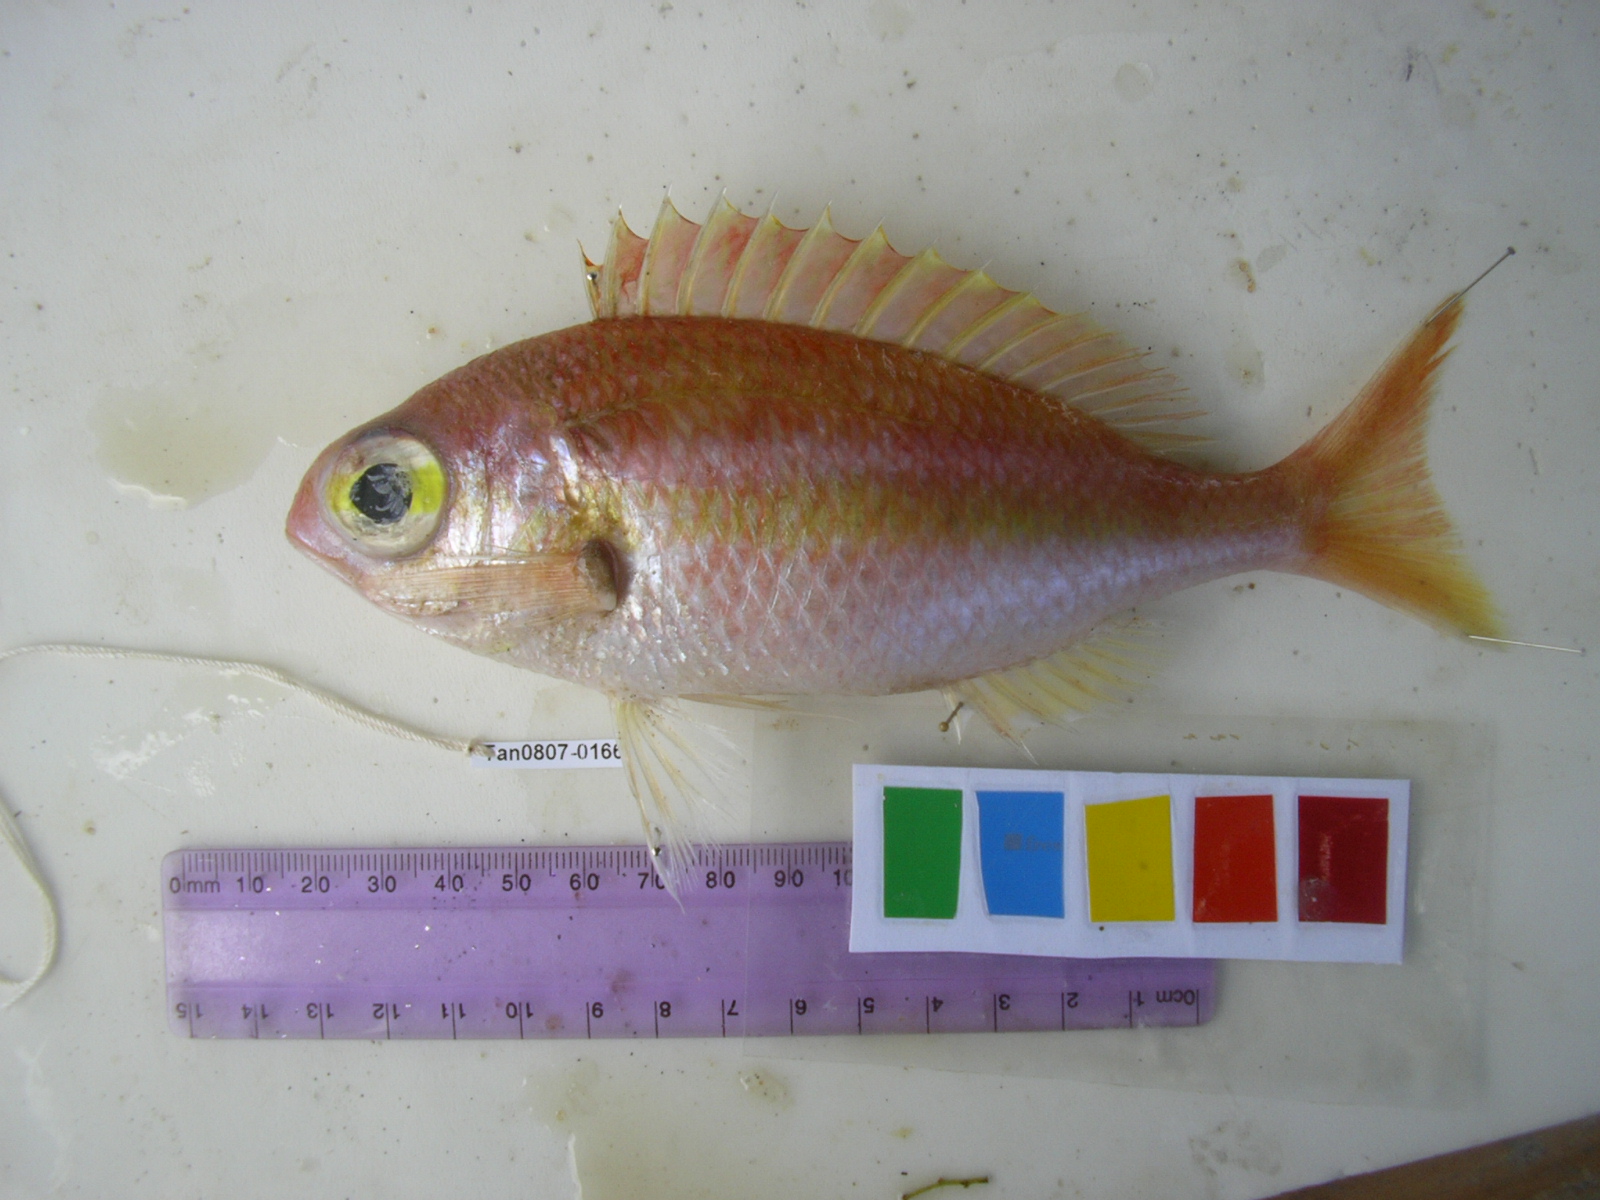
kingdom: Animalia
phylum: Chordata
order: Perciformes
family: Nemipteridae
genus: Parascolopsis
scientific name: Parascolopsis eriomma
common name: Rosy dwarf monocle bream
